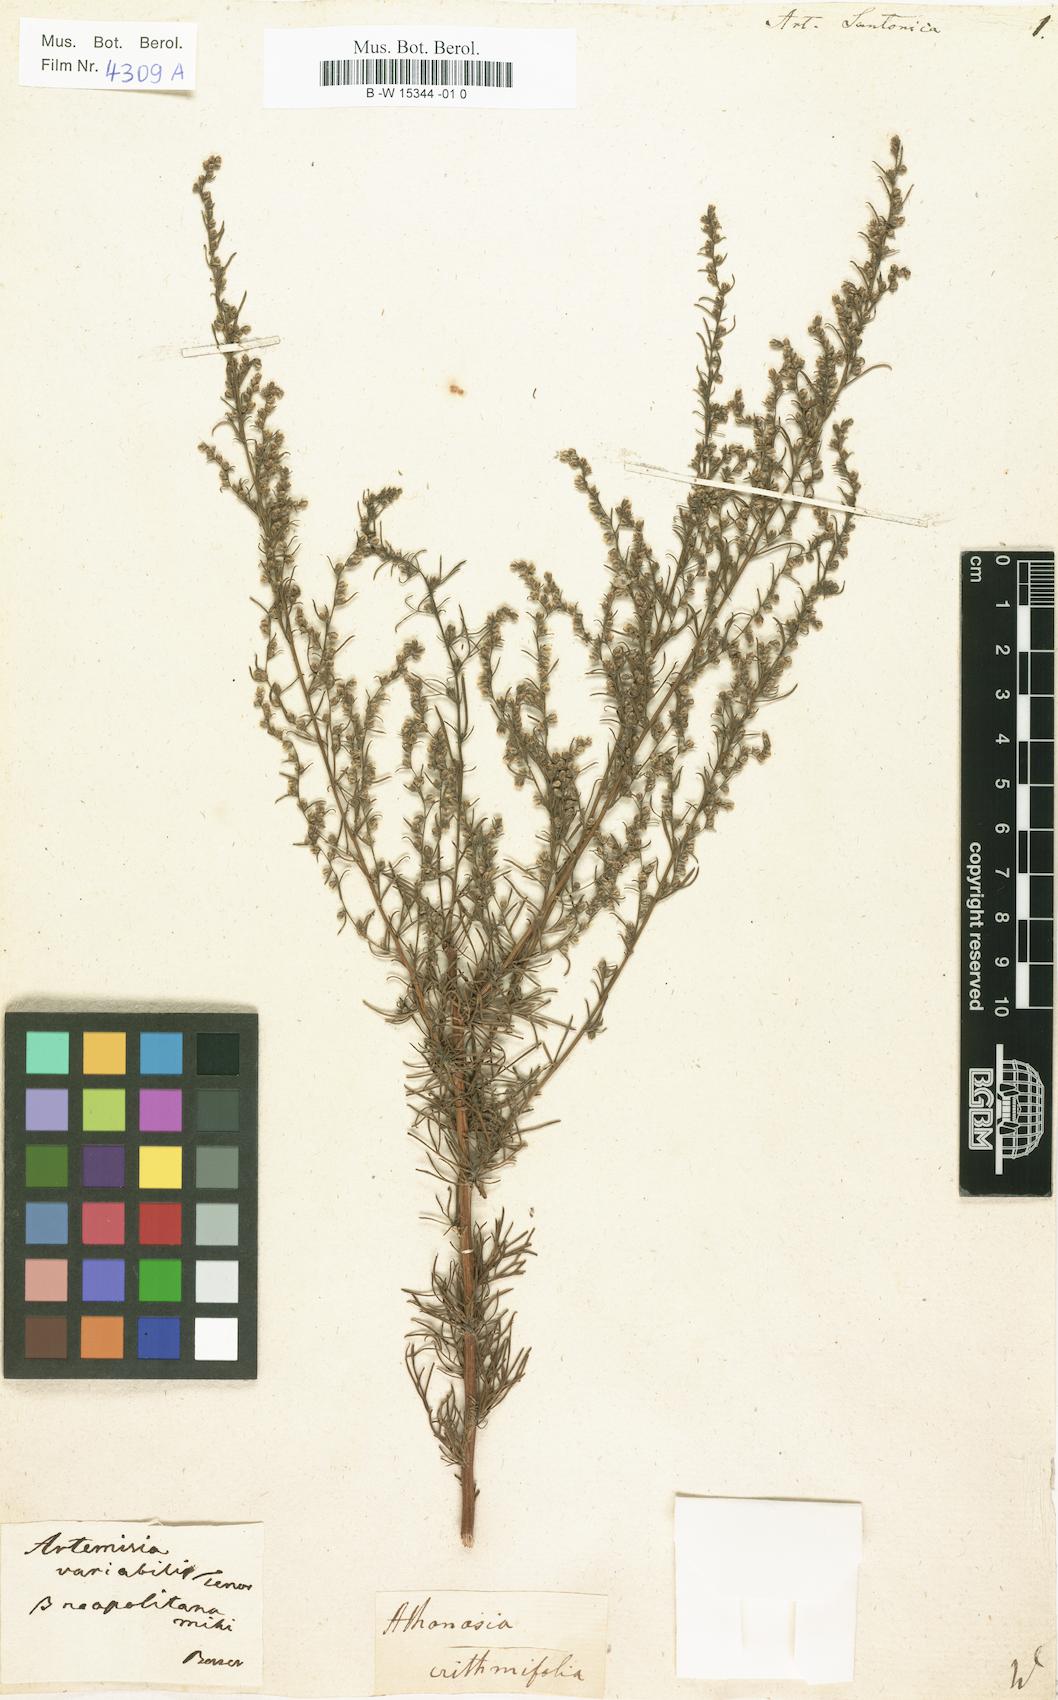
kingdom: Plantae
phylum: Tracheophyta
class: Magnoliopsida
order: Asterales
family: Asteraceae
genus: Artemisia
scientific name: Artemisia santonicum
